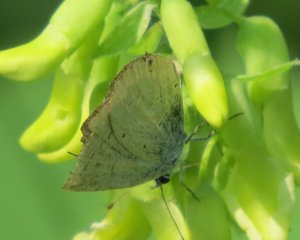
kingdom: Animalia
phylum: Arthropoda
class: Insecta
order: Lepidoptera
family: Lycaenidae
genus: Elkalyce
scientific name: Elkalyce amyntula
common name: Western Tailed-Blue
